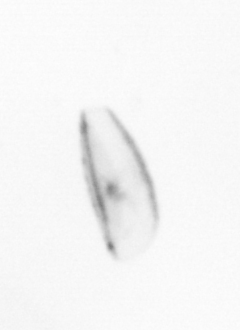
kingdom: Chromista
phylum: Ochrophyta
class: Bacillariophyceae
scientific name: Bacillariophyceae
